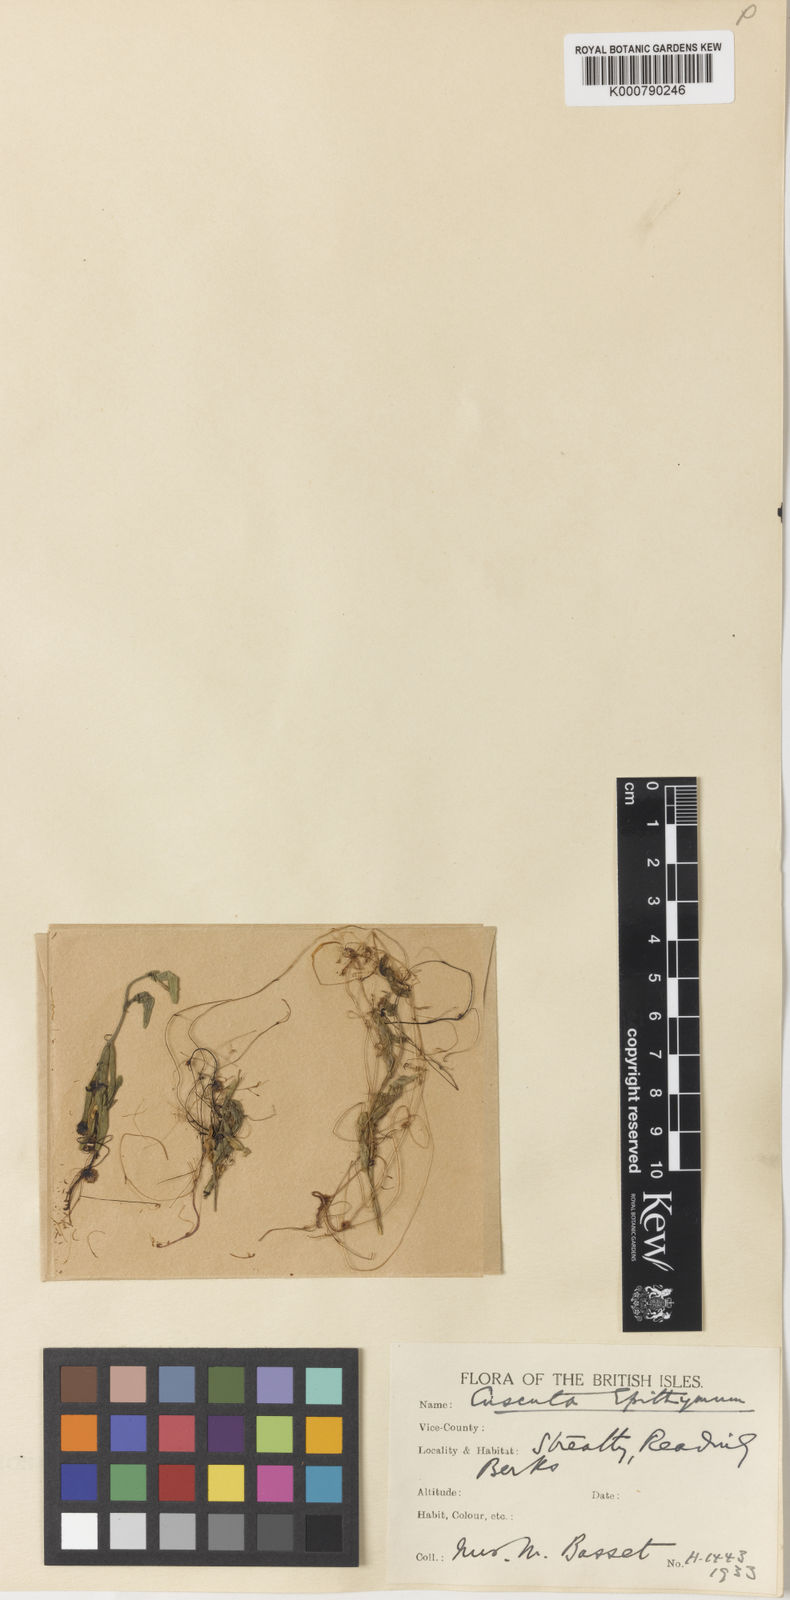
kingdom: Plantae
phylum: Tracheophyta
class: Magnoliopsida
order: Solanales
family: Convolvulaceae
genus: Cuscuta
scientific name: Cuscuta epithymum
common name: Clover dodder
